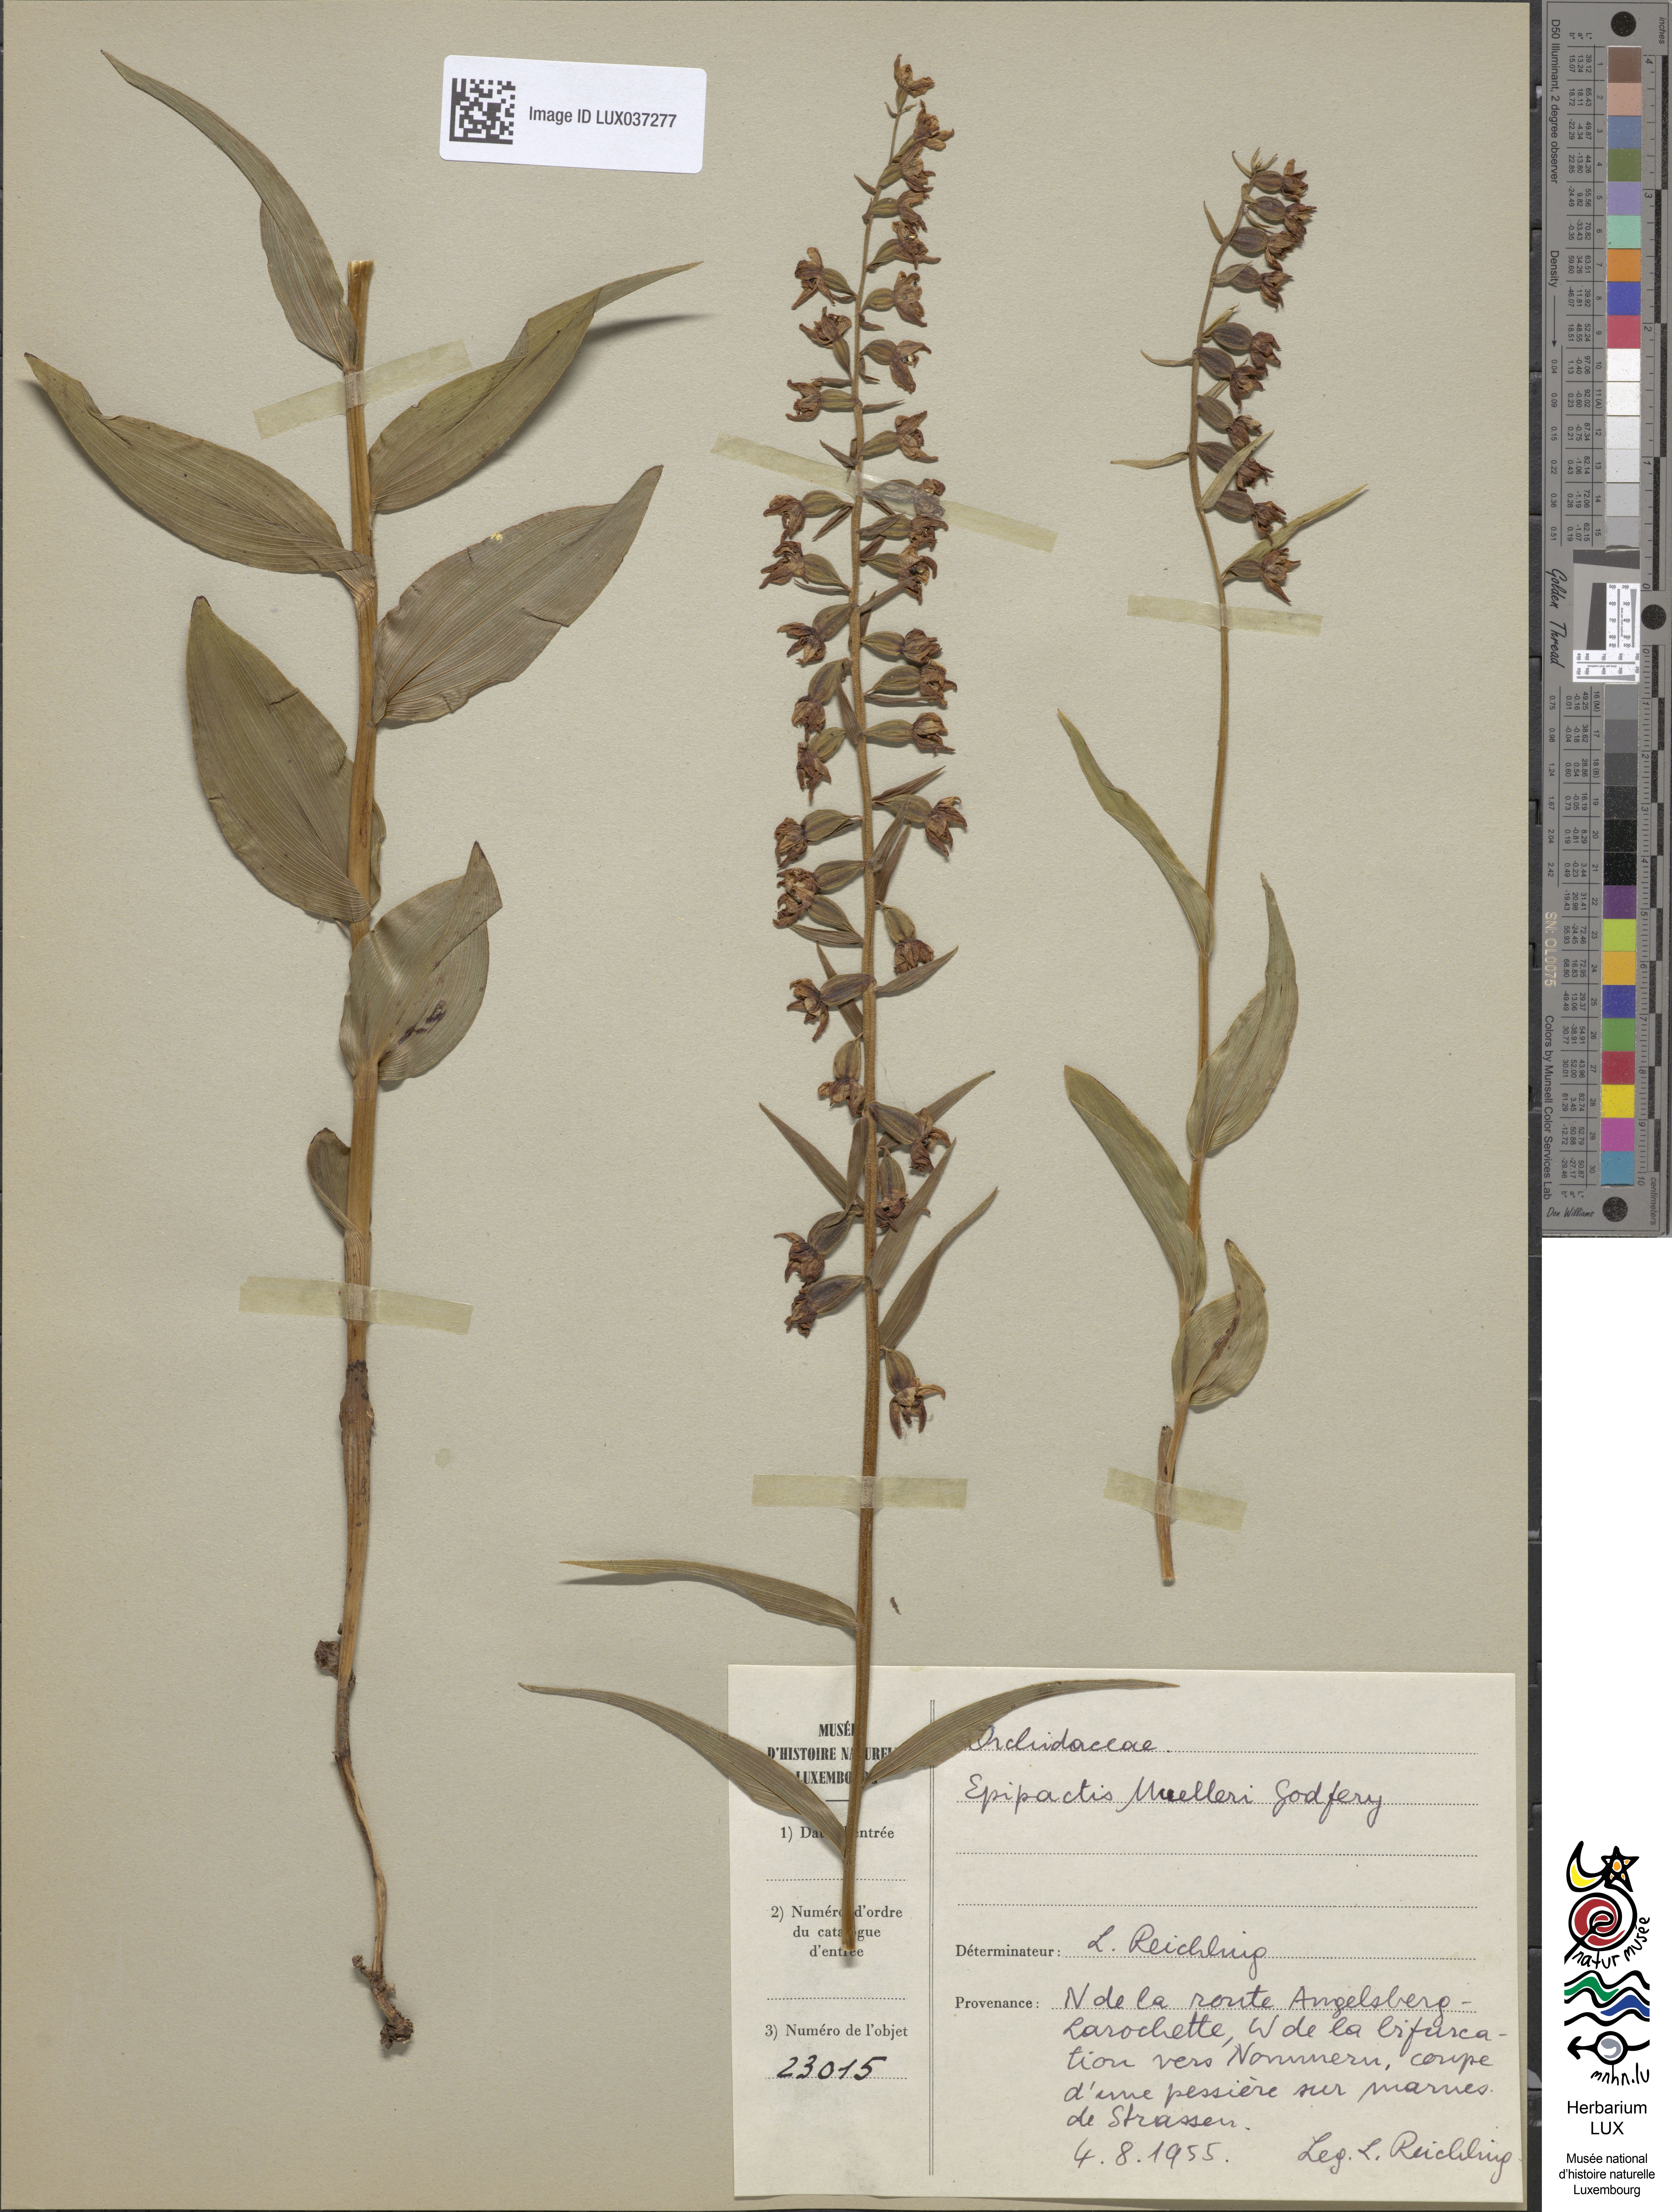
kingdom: Plantae
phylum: Tracheophyta
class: Liliopsida
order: Asparagales
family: Orchidaceae
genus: Epipactis
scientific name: Epipactis muelleri
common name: Mueller's epipactis
